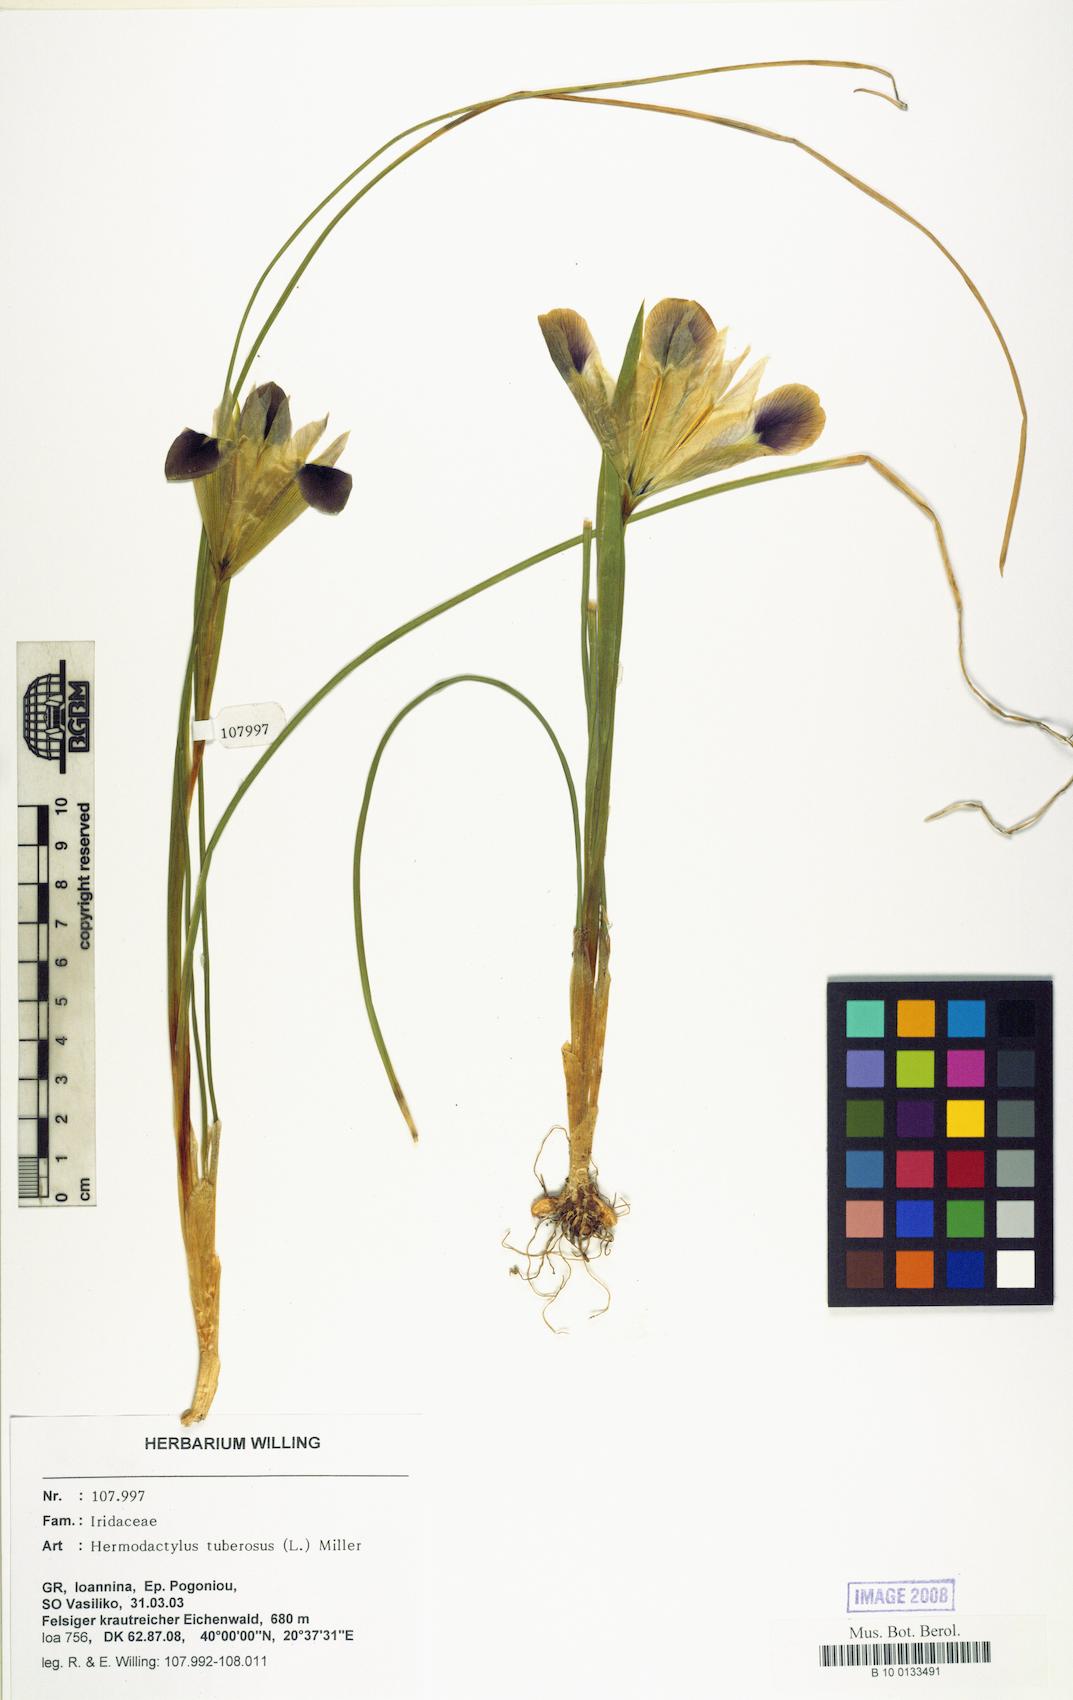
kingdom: Plantae
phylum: Tracheophyta
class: Liliopsida
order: Asparagales
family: Iridaceae
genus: Iris
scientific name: Iris tuberosa
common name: Snake's-head iris
